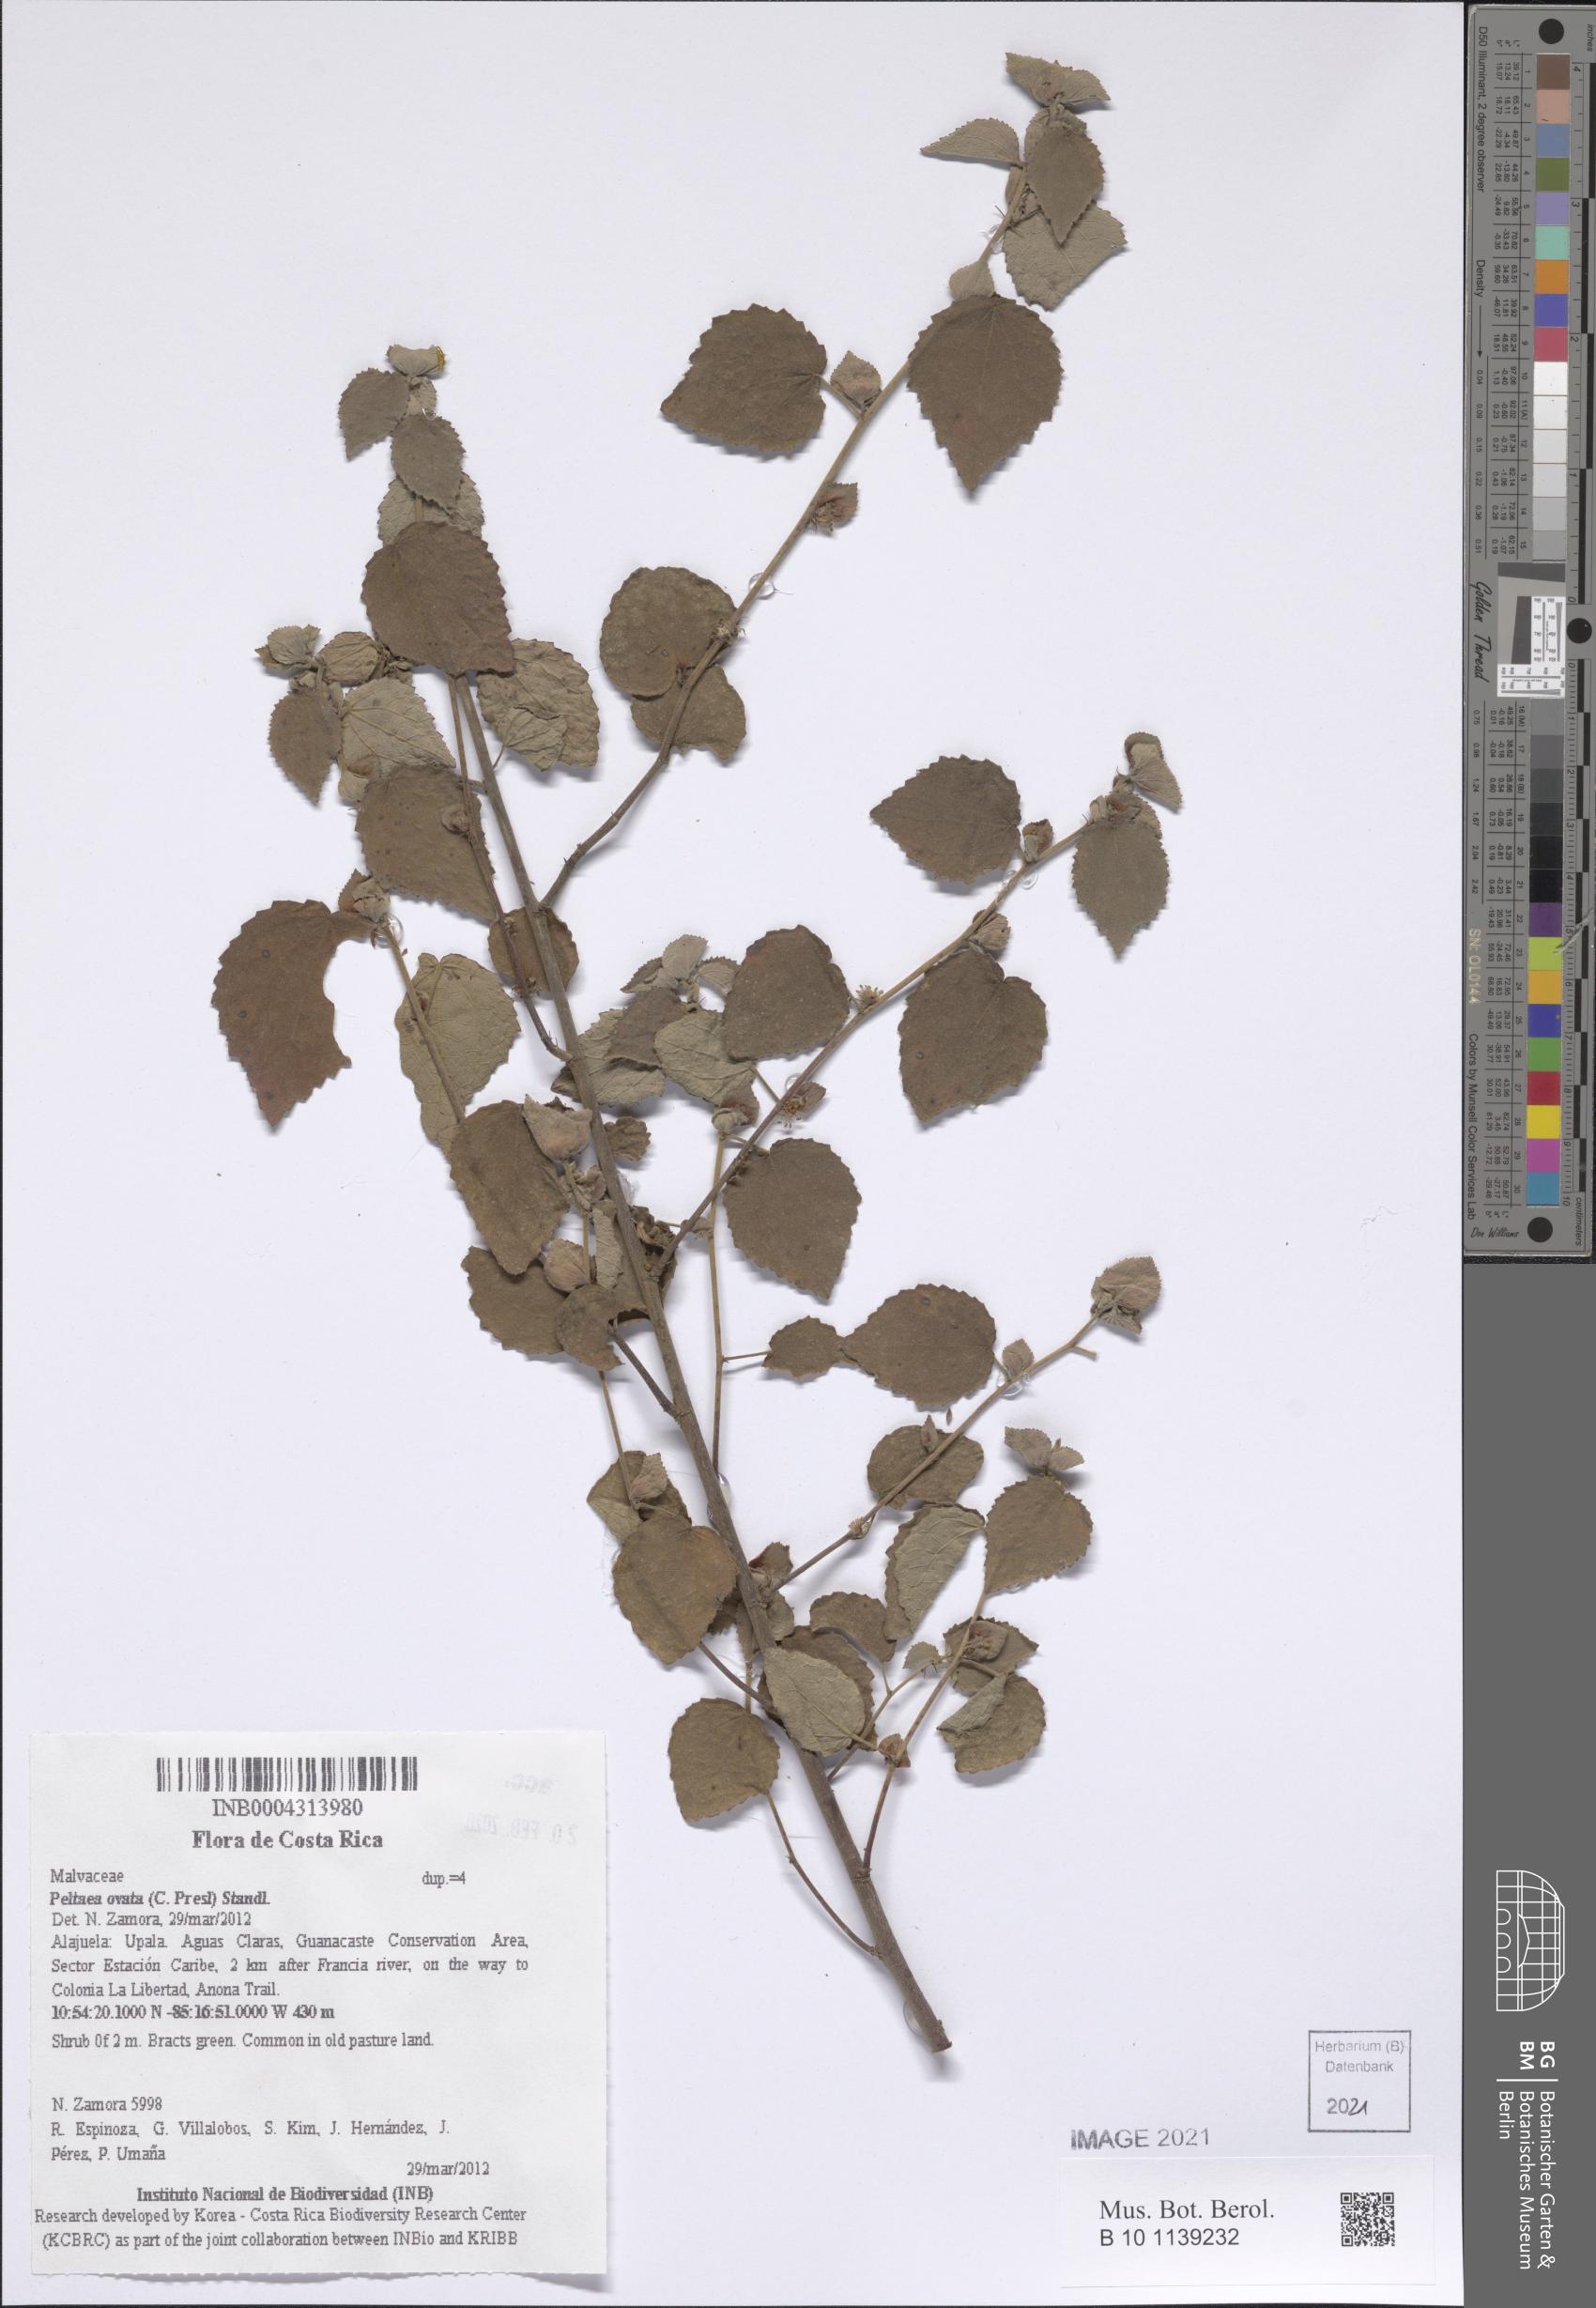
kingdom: Plantae
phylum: Tracheophyta
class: Magnoliopsida
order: Malvales
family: Malvaceae
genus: Peltaea
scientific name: Peltaea trinervis
